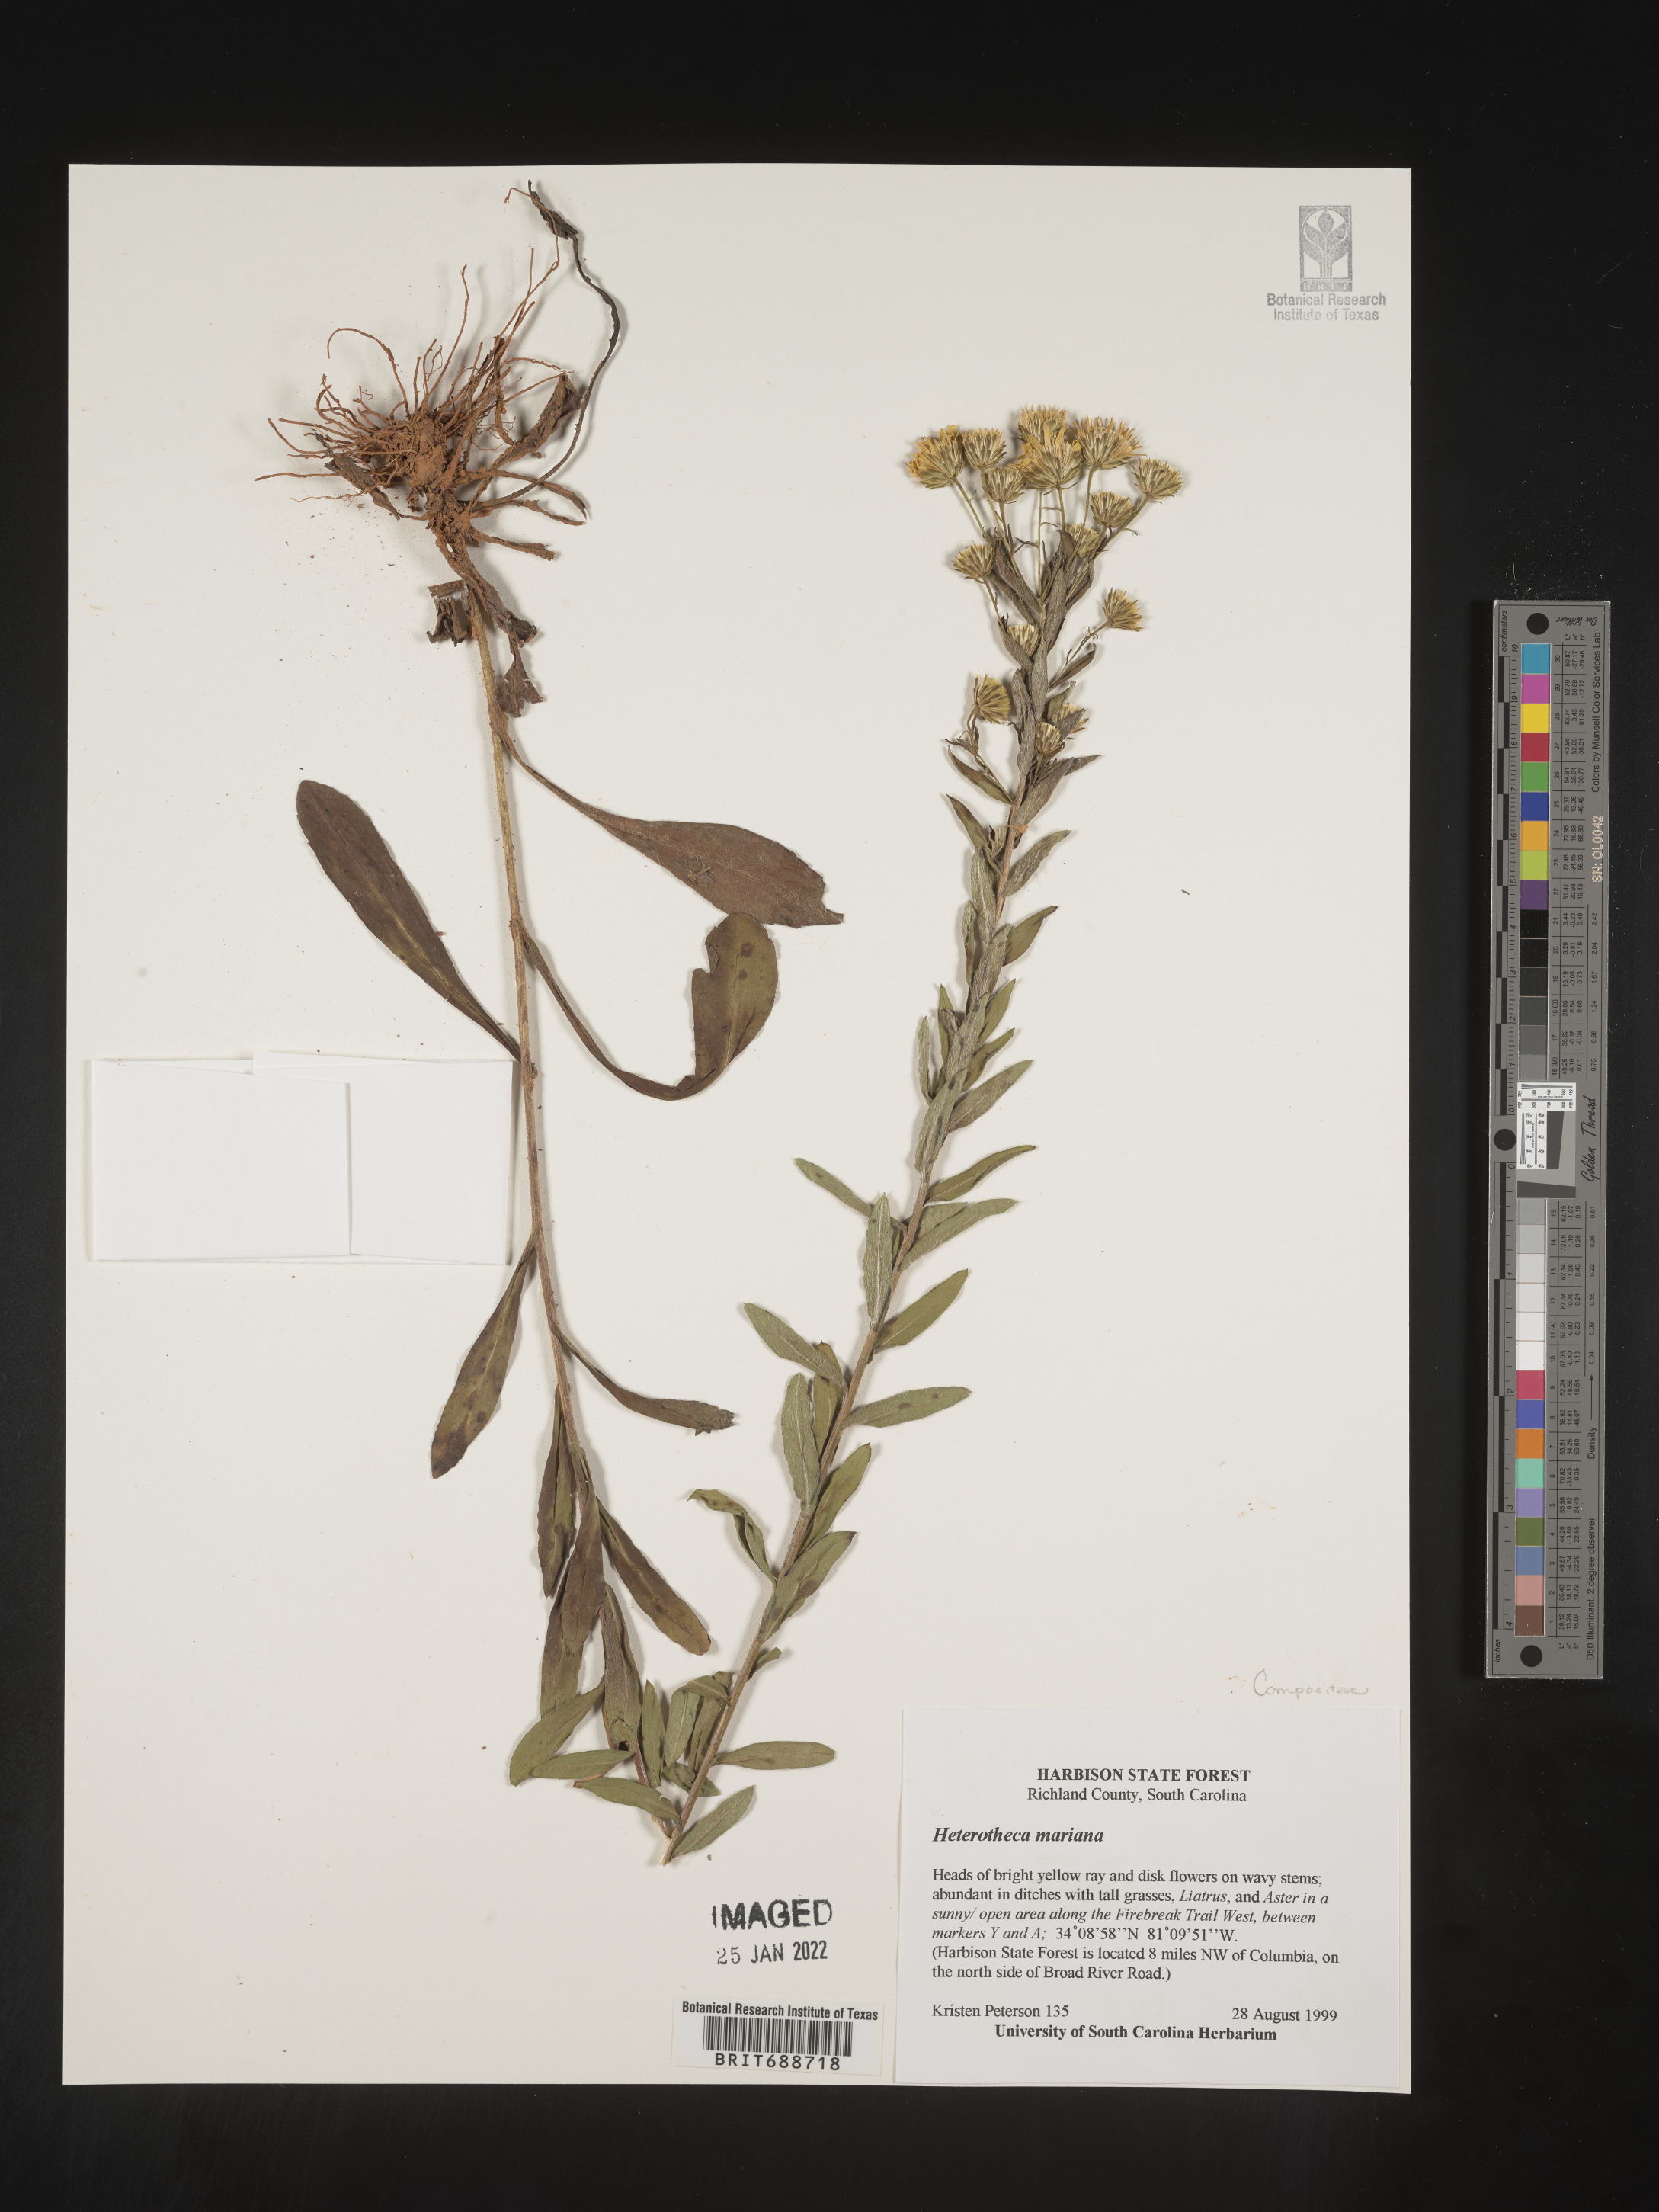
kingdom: Plantae
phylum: Tracheophyta
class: Magnoliopsida
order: Asterales
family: Asteraceae
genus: Chrysopsis
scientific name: Chrysopsis mariana
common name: Maryland golden-aster
